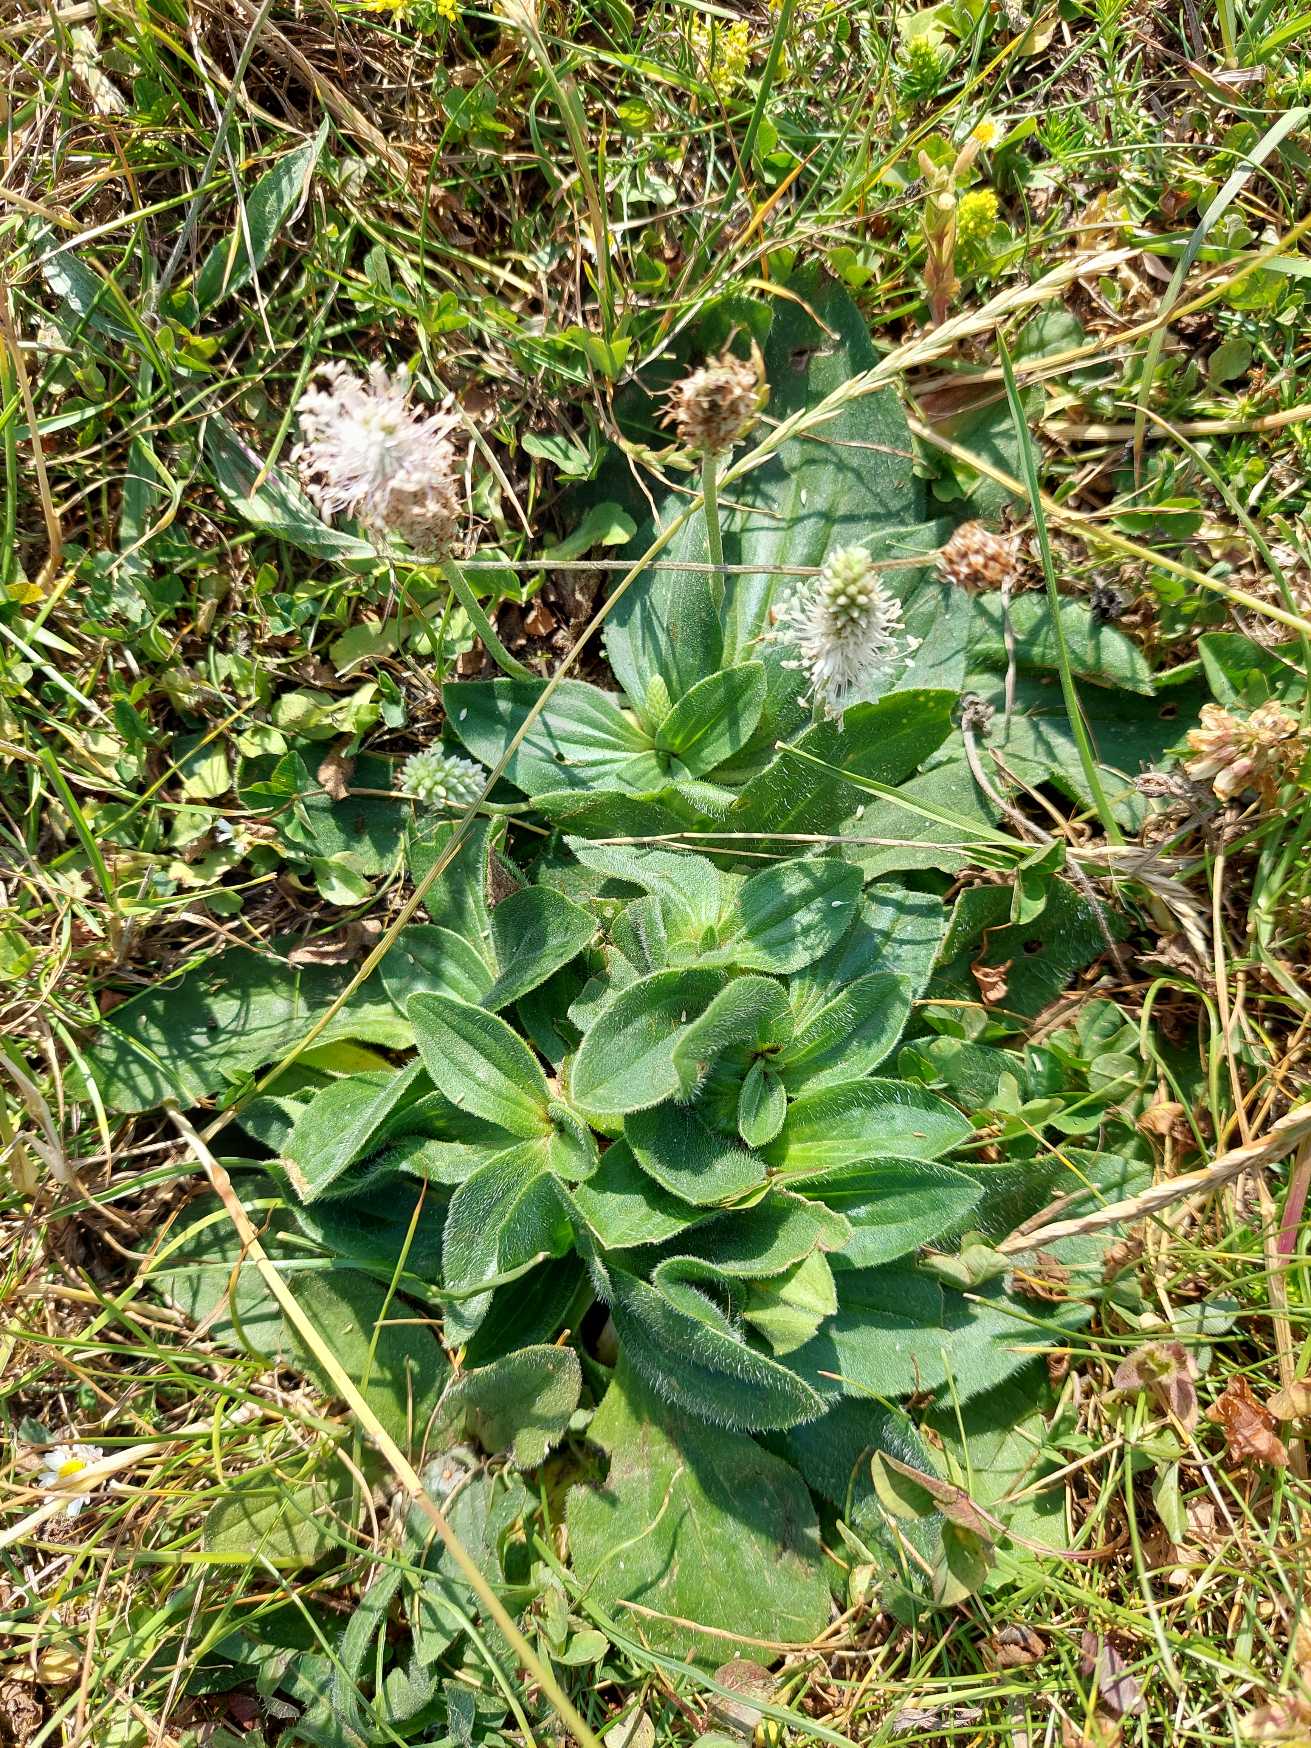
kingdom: Plantae
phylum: Tracheophyta
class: Magnoliopsida
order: Lamiales
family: Plantaginaceae
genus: Plantago
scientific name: Plantago media
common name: Dunet vejbred
